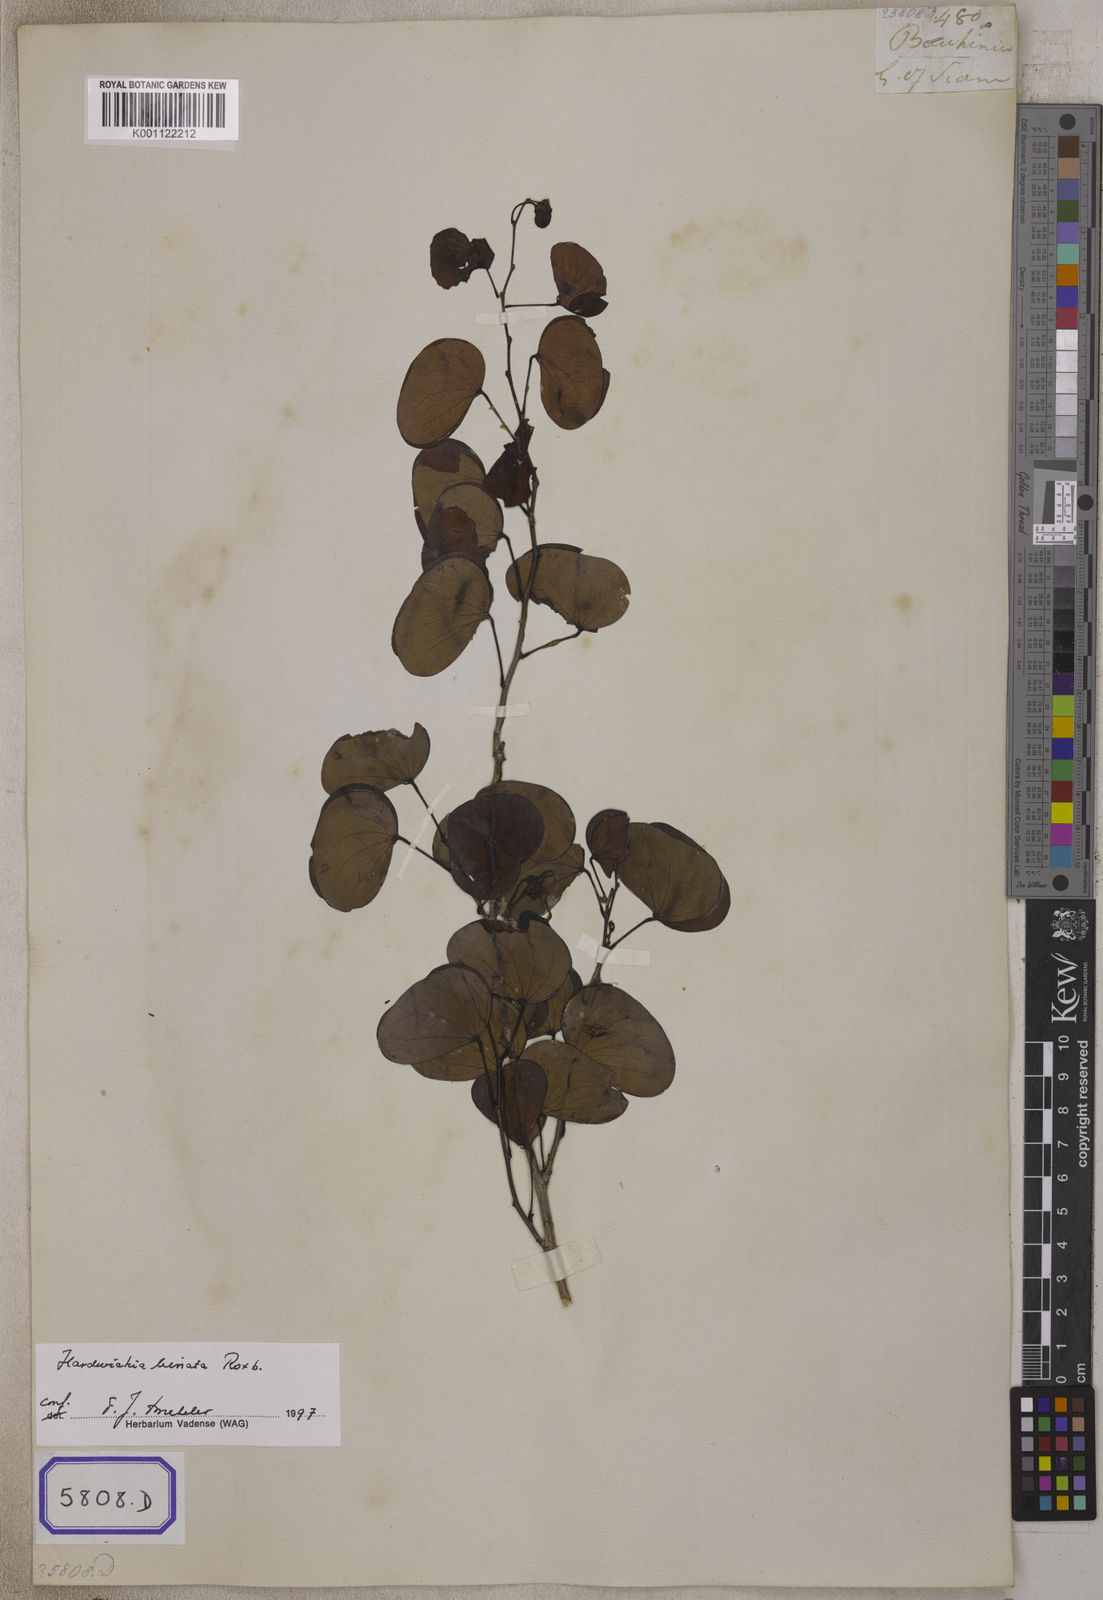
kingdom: Plantae
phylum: Tracheophyta
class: Magnoliopsida
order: Fabales
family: Fabaceae
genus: Hardwickia
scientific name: Hardwickia binata
